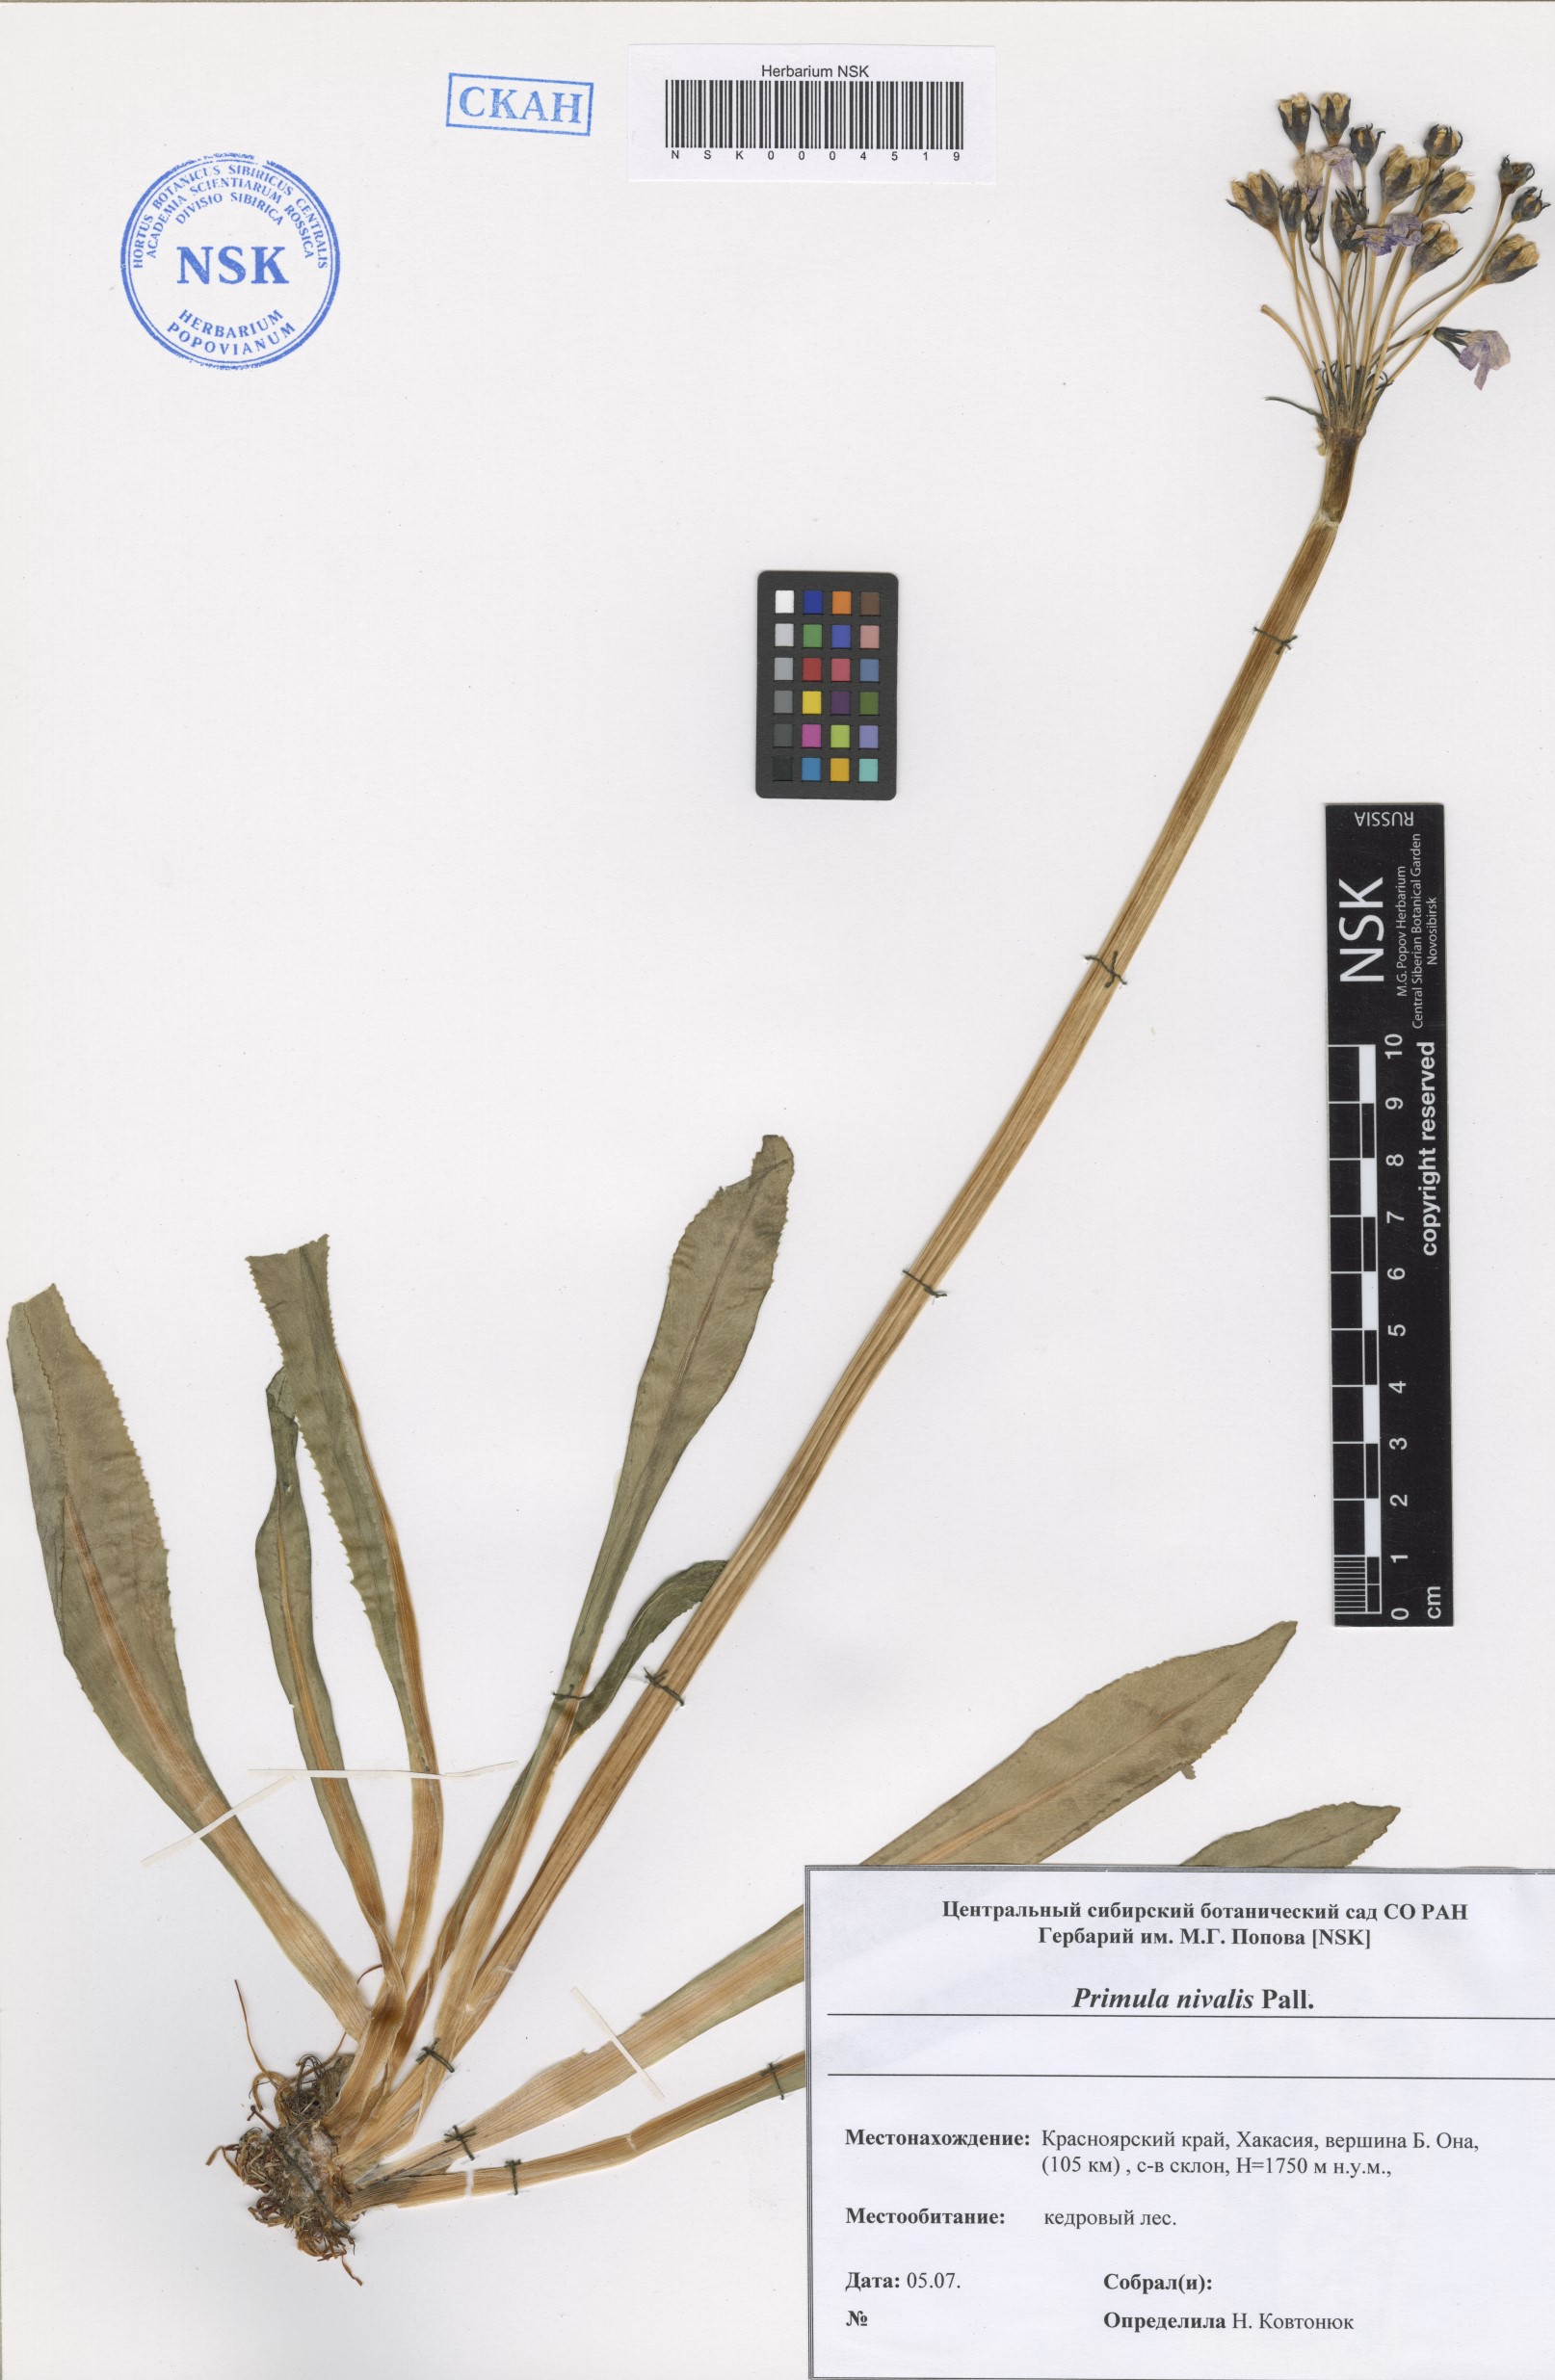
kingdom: Plantae
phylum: Tracheophyta
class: Magnoliopsida
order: Ericales
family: Primulaceae
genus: Primula
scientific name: Primula nivalis
